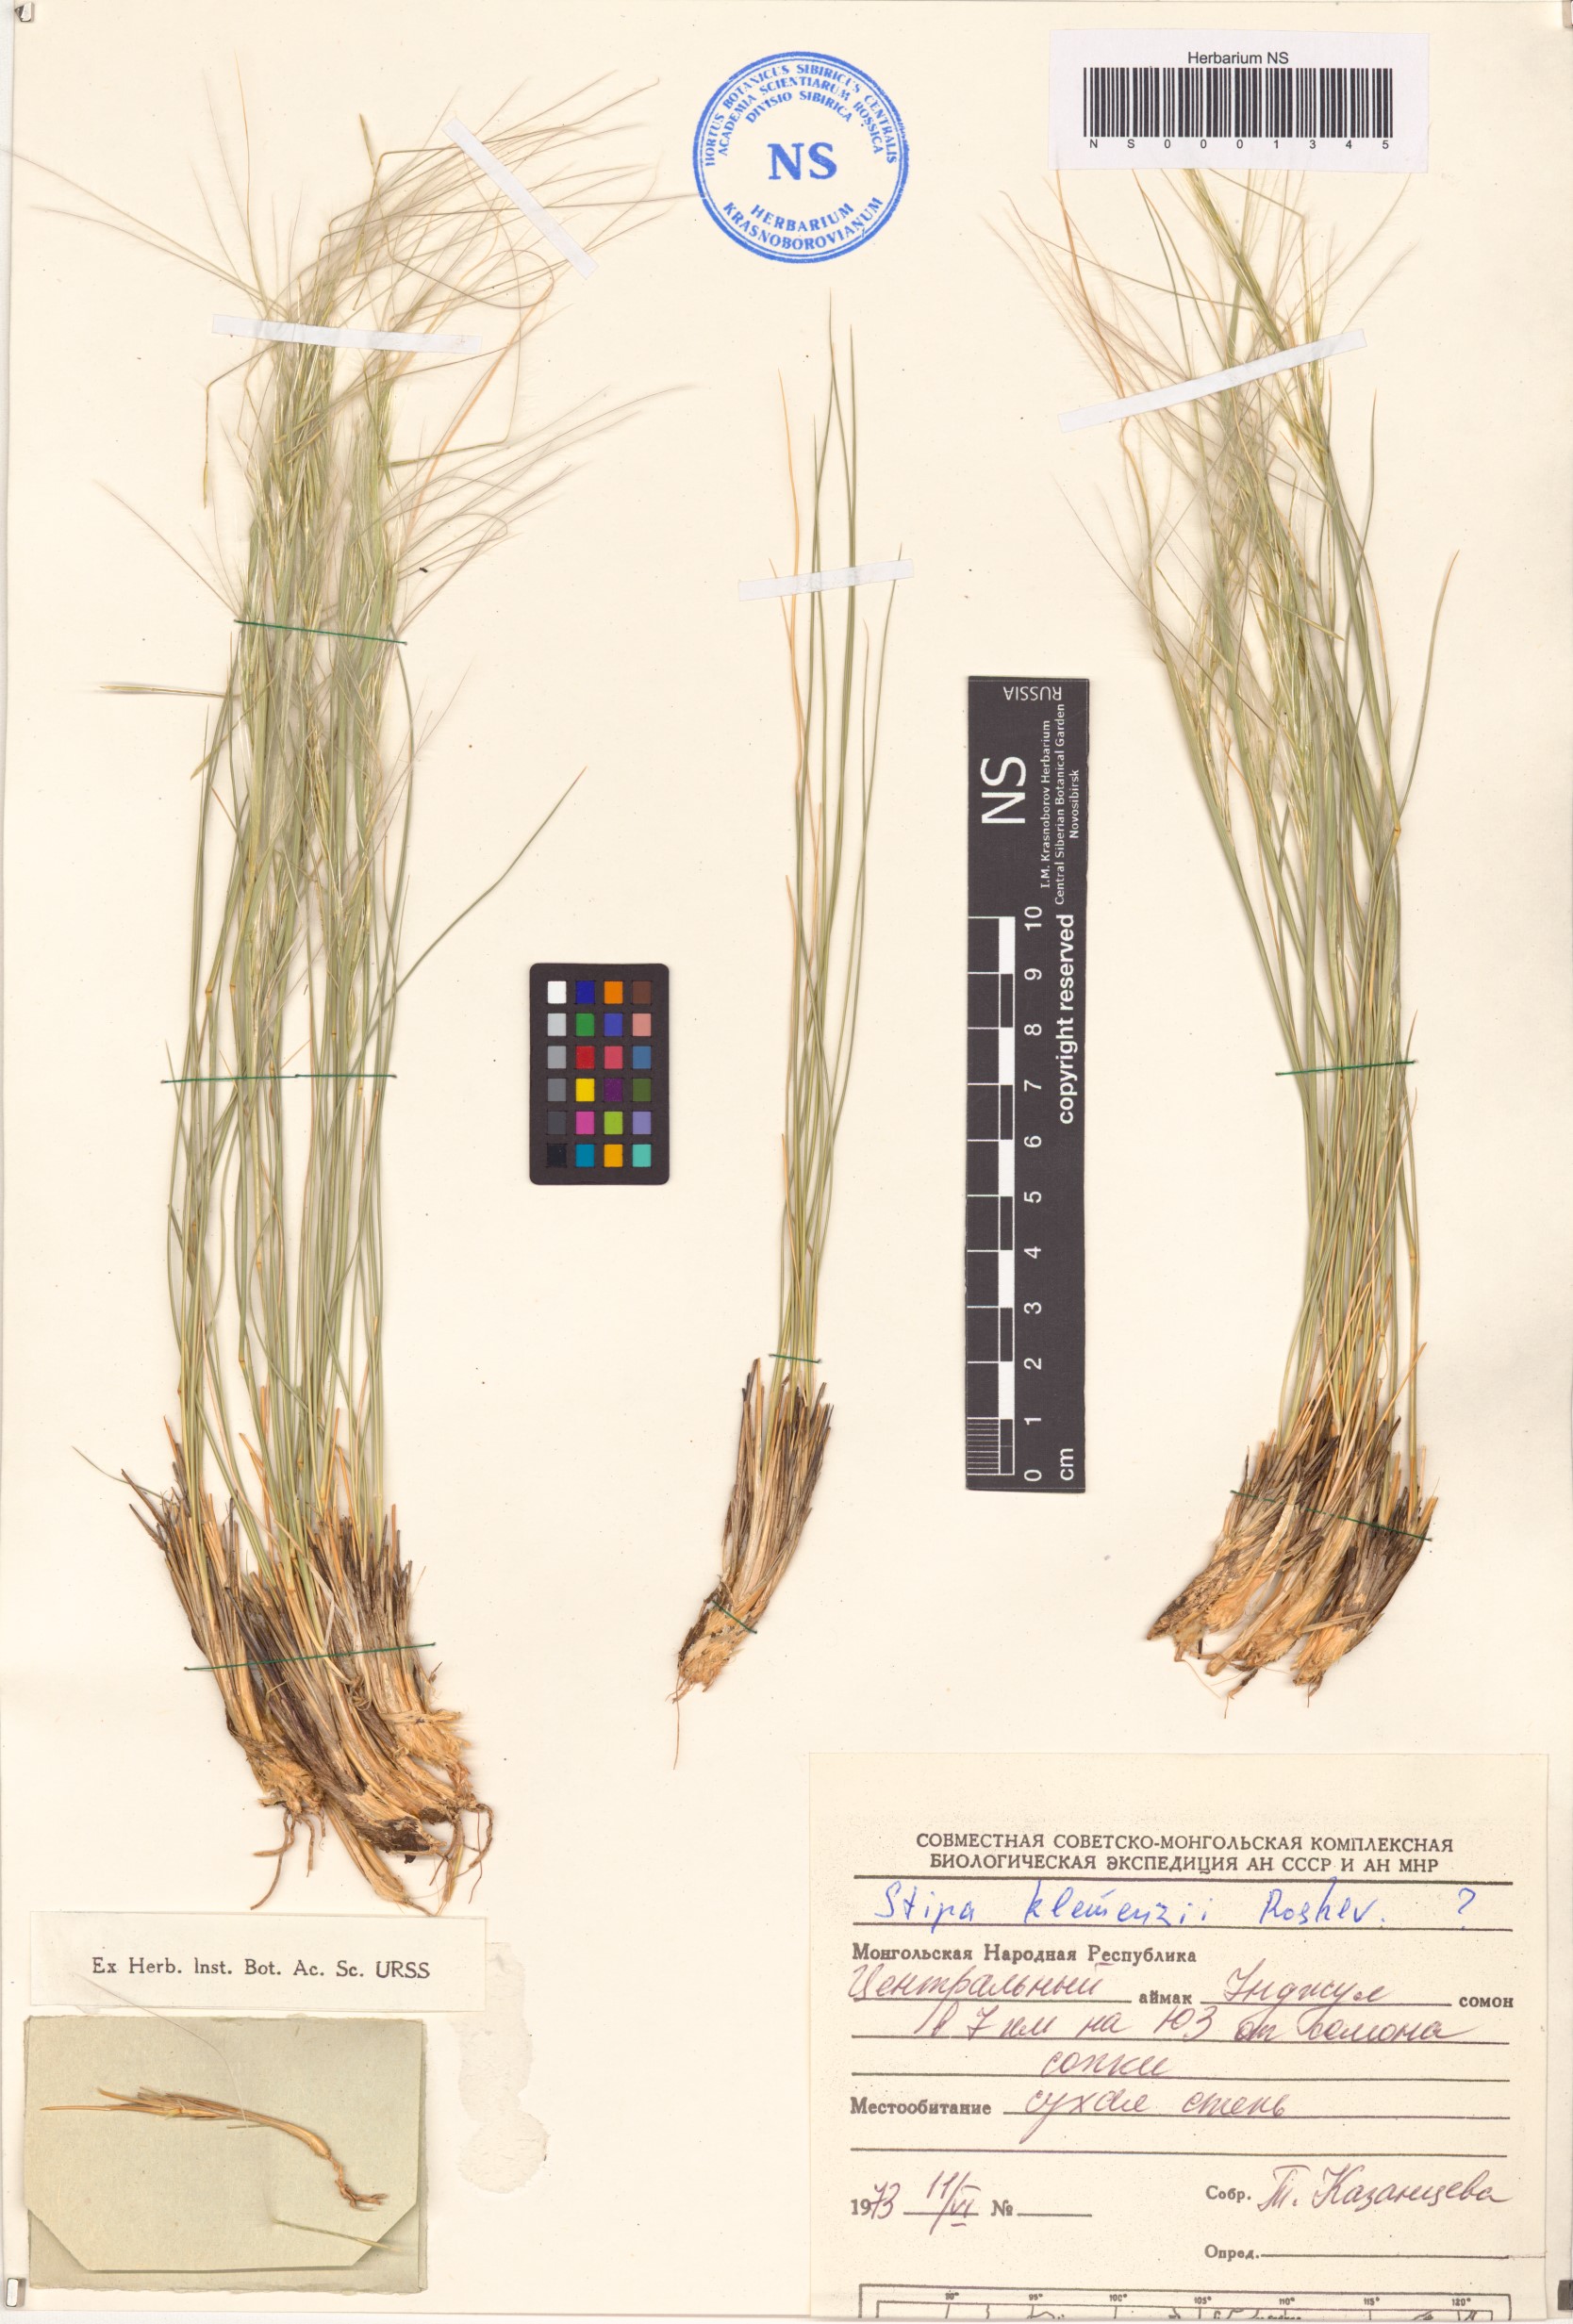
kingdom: Plantae
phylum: Tracheophyta
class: Liliopsida
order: Poales
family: Poaceae
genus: Stipa
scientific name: Stipa tianschanica
